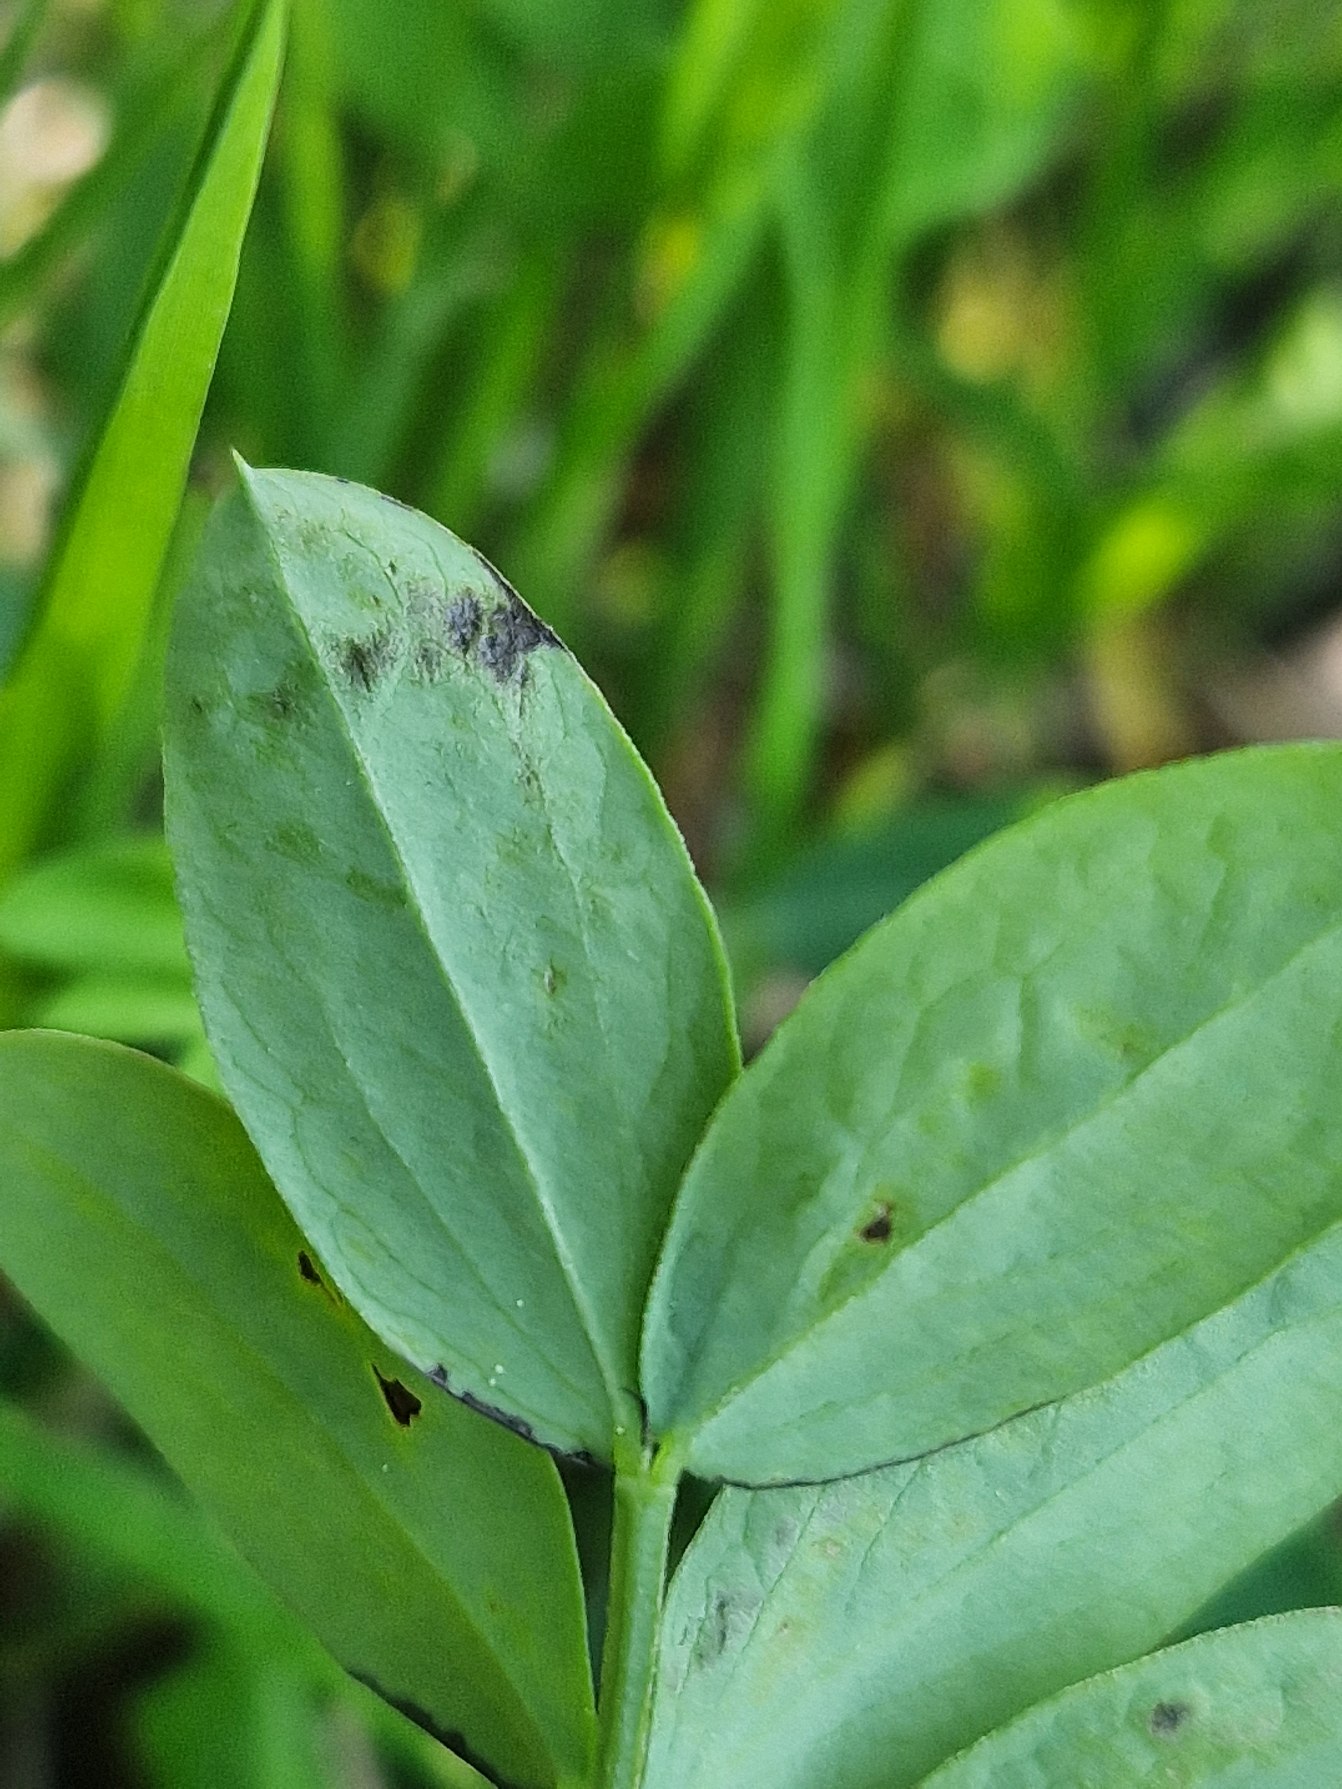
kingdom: Plantae
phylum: Tracheophyta
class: Magnoliopsida
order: Fabales
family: Fabaceae
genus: Lathyrus
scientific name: Lathyrus niger
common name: Sort fladbælg
